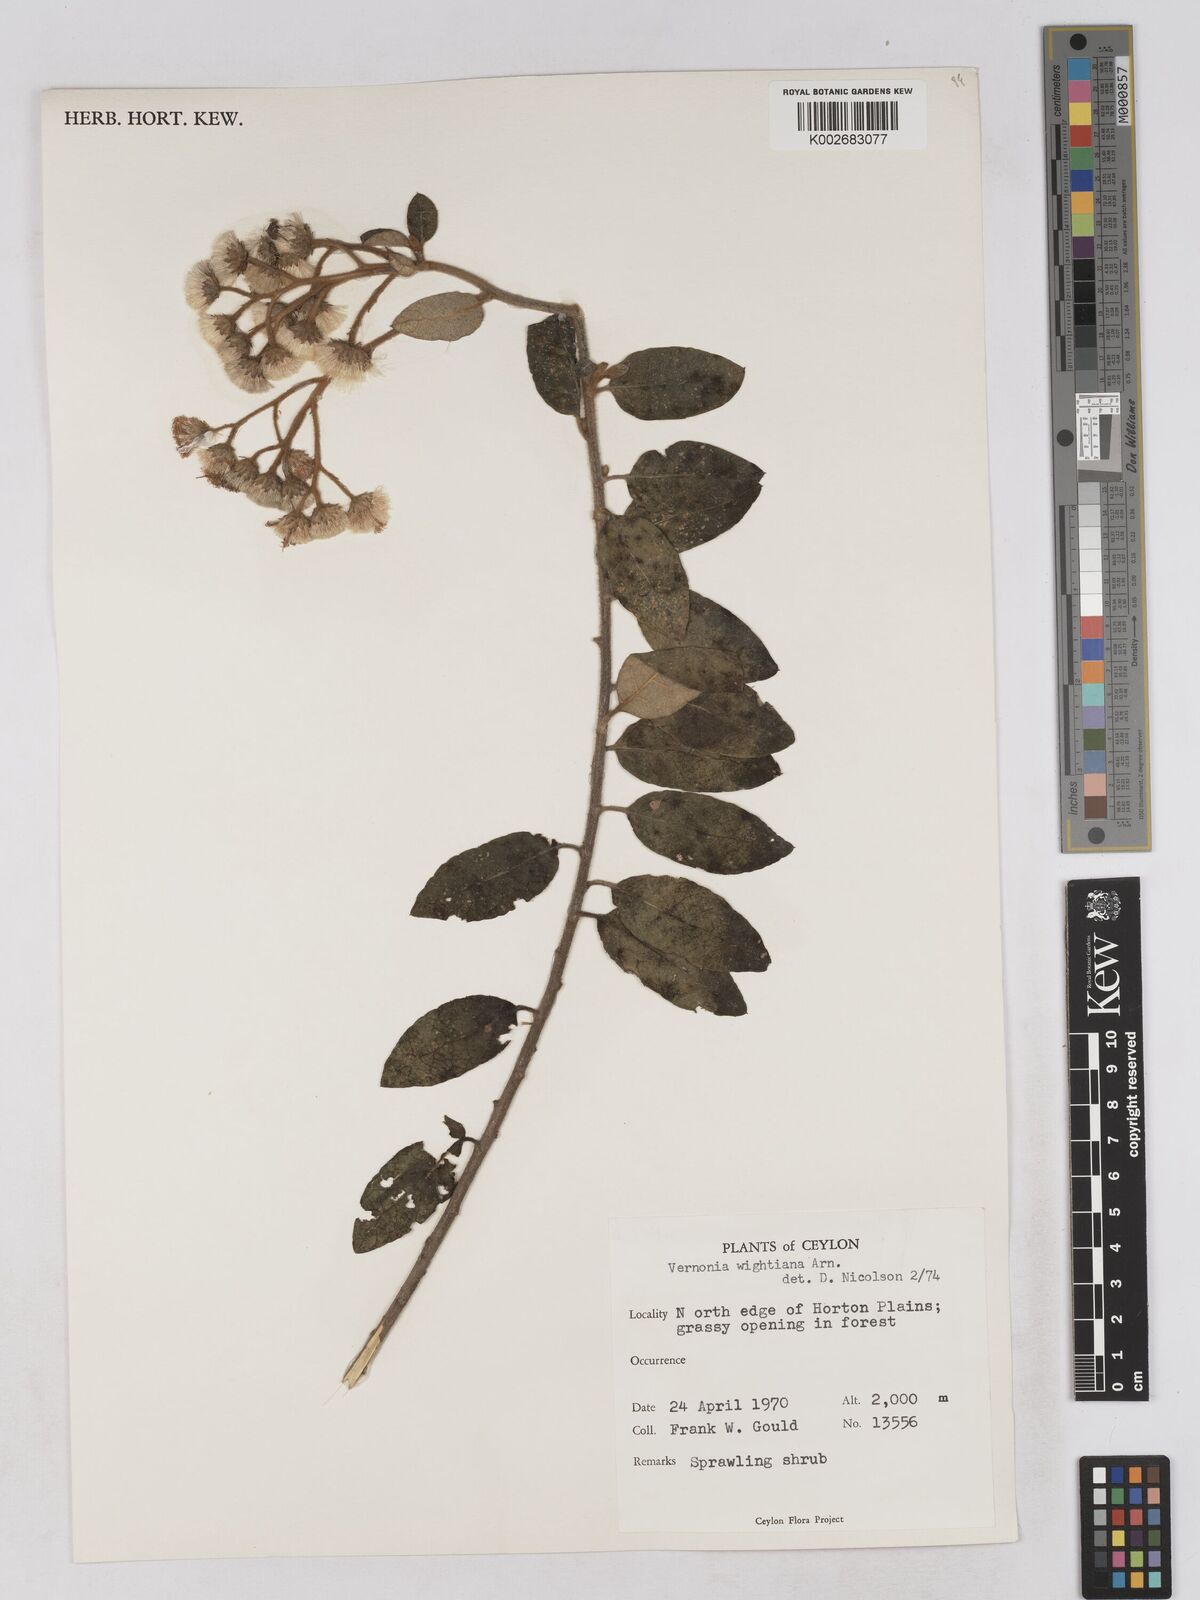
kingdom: Plantae
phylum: Tracheophyta
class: Magnoliopsida
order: Asterales
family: Asteraceae
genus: Uniyala
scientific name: Uniyala wightiana
